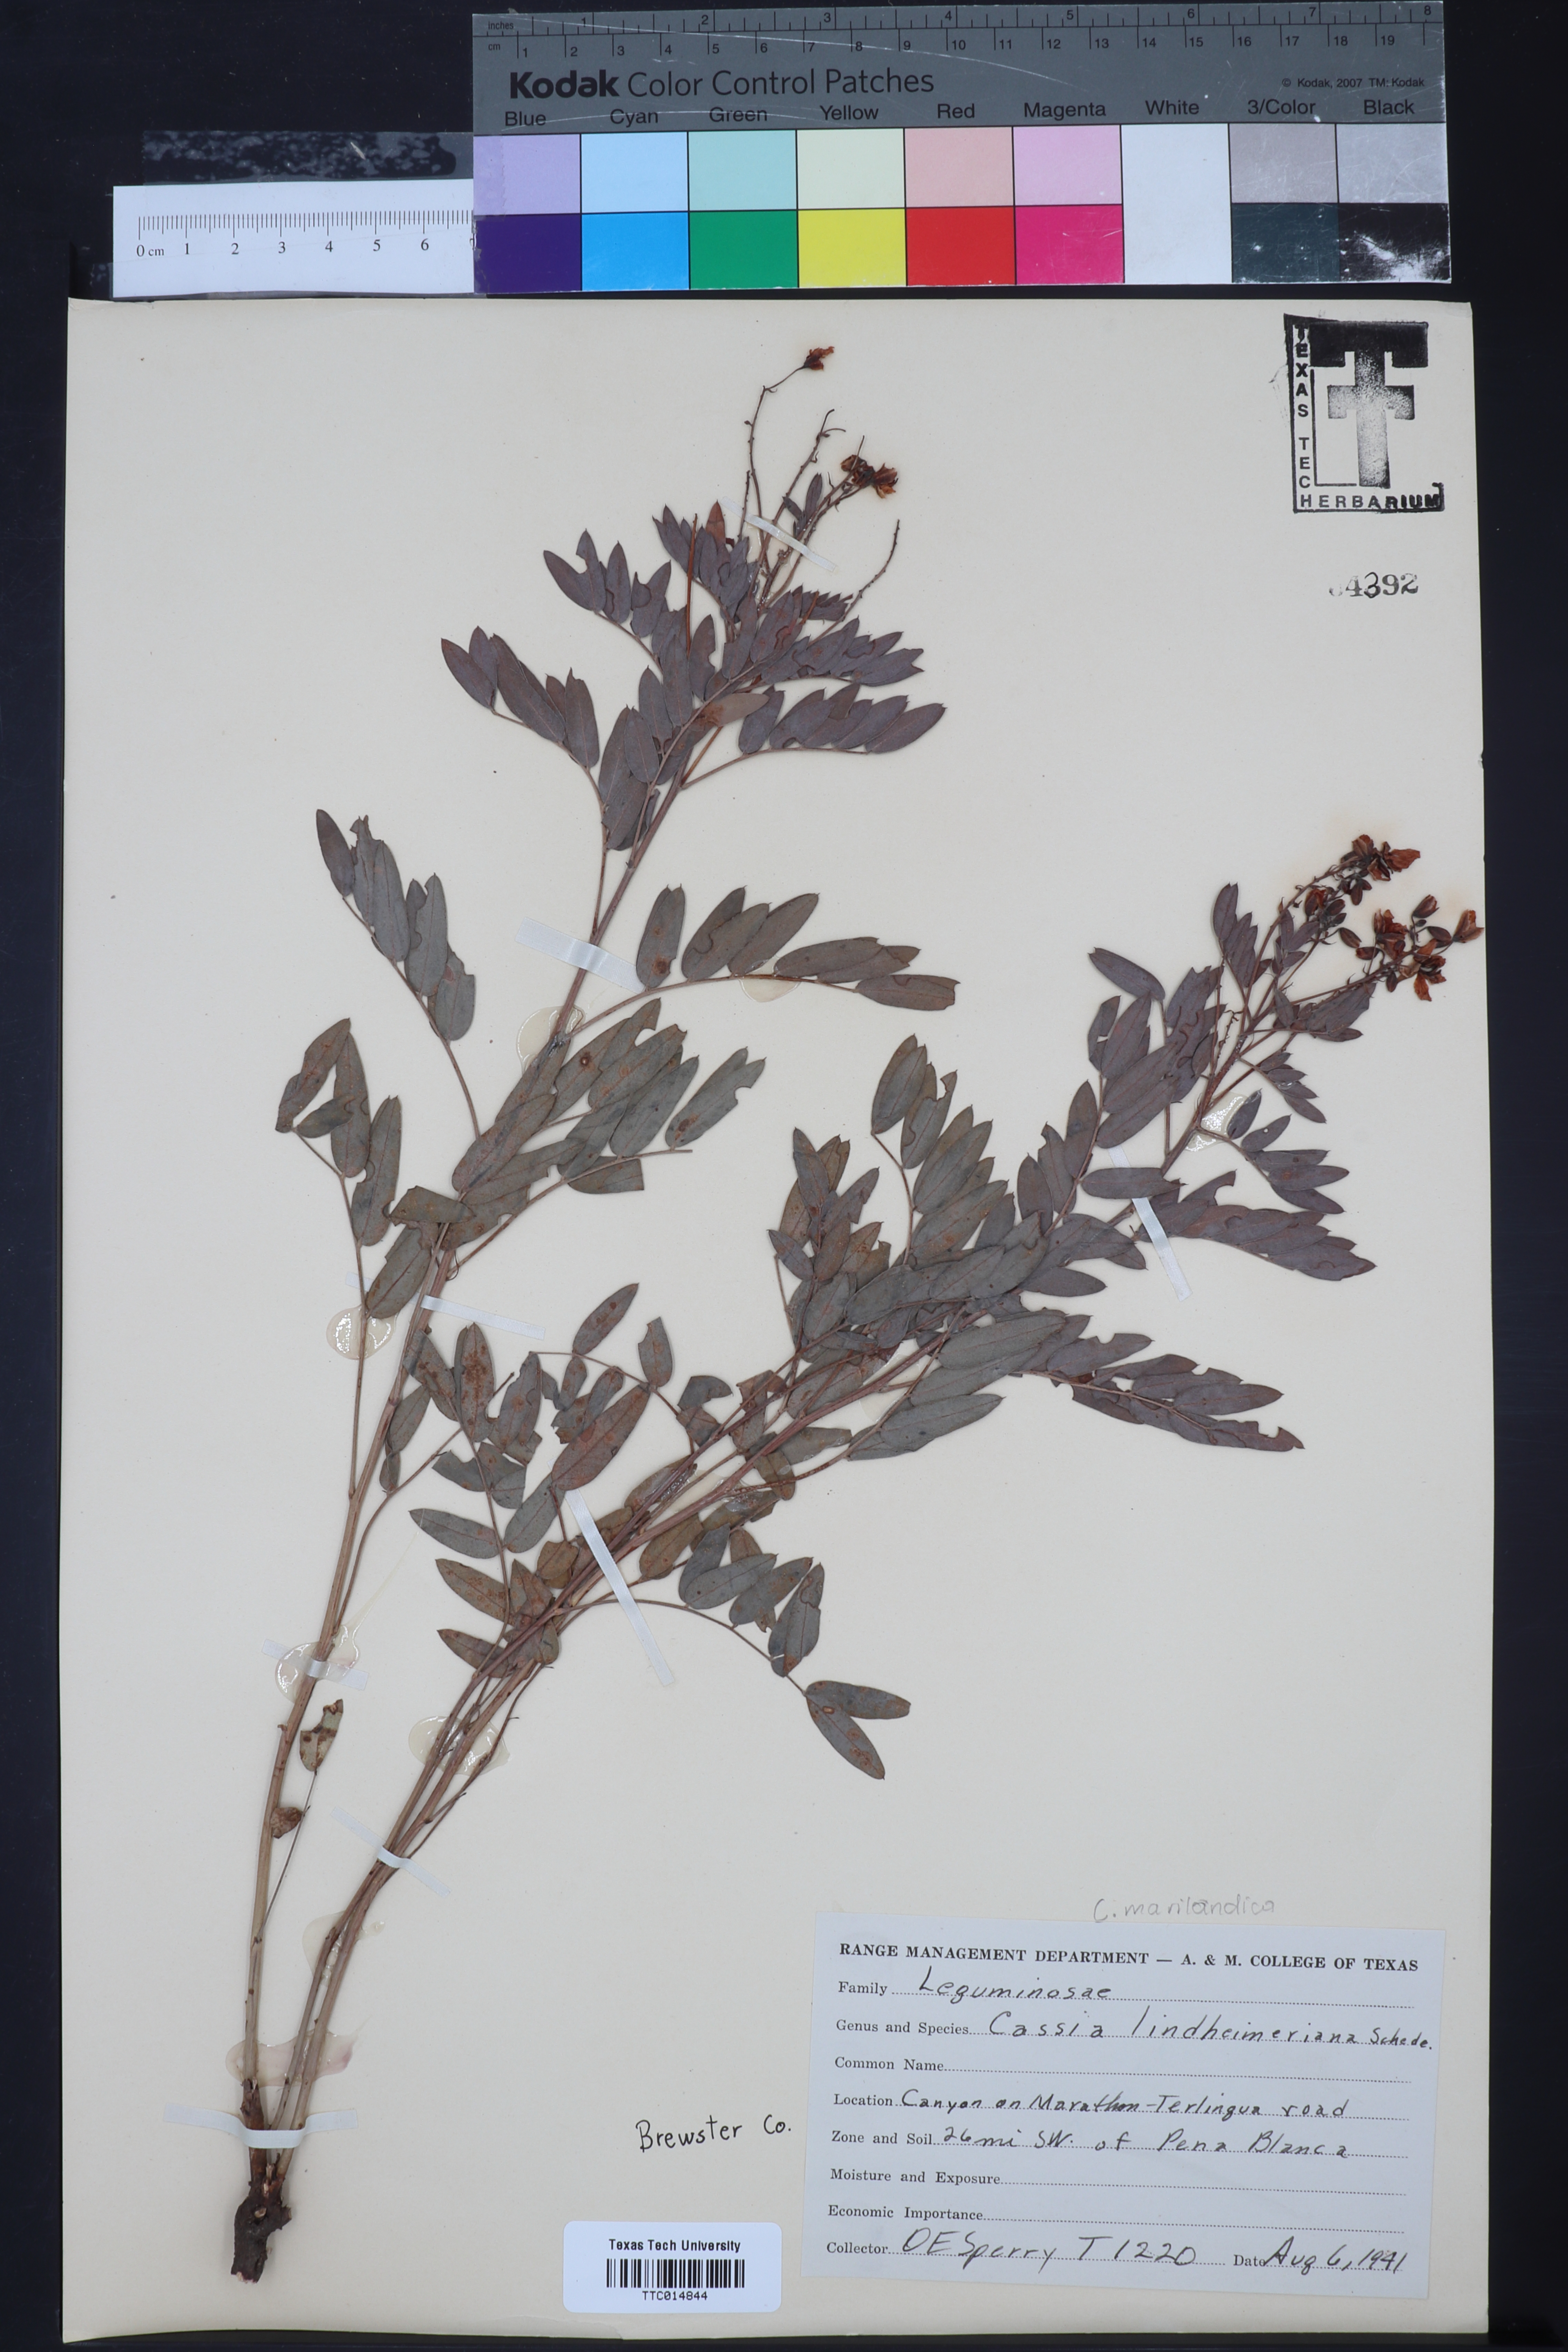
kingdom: Plantae
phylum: Tracheophyta
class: Magnoliopsida
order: Fabales
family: Fabaceae
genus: Senna
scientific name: Senna lindheimeriana
